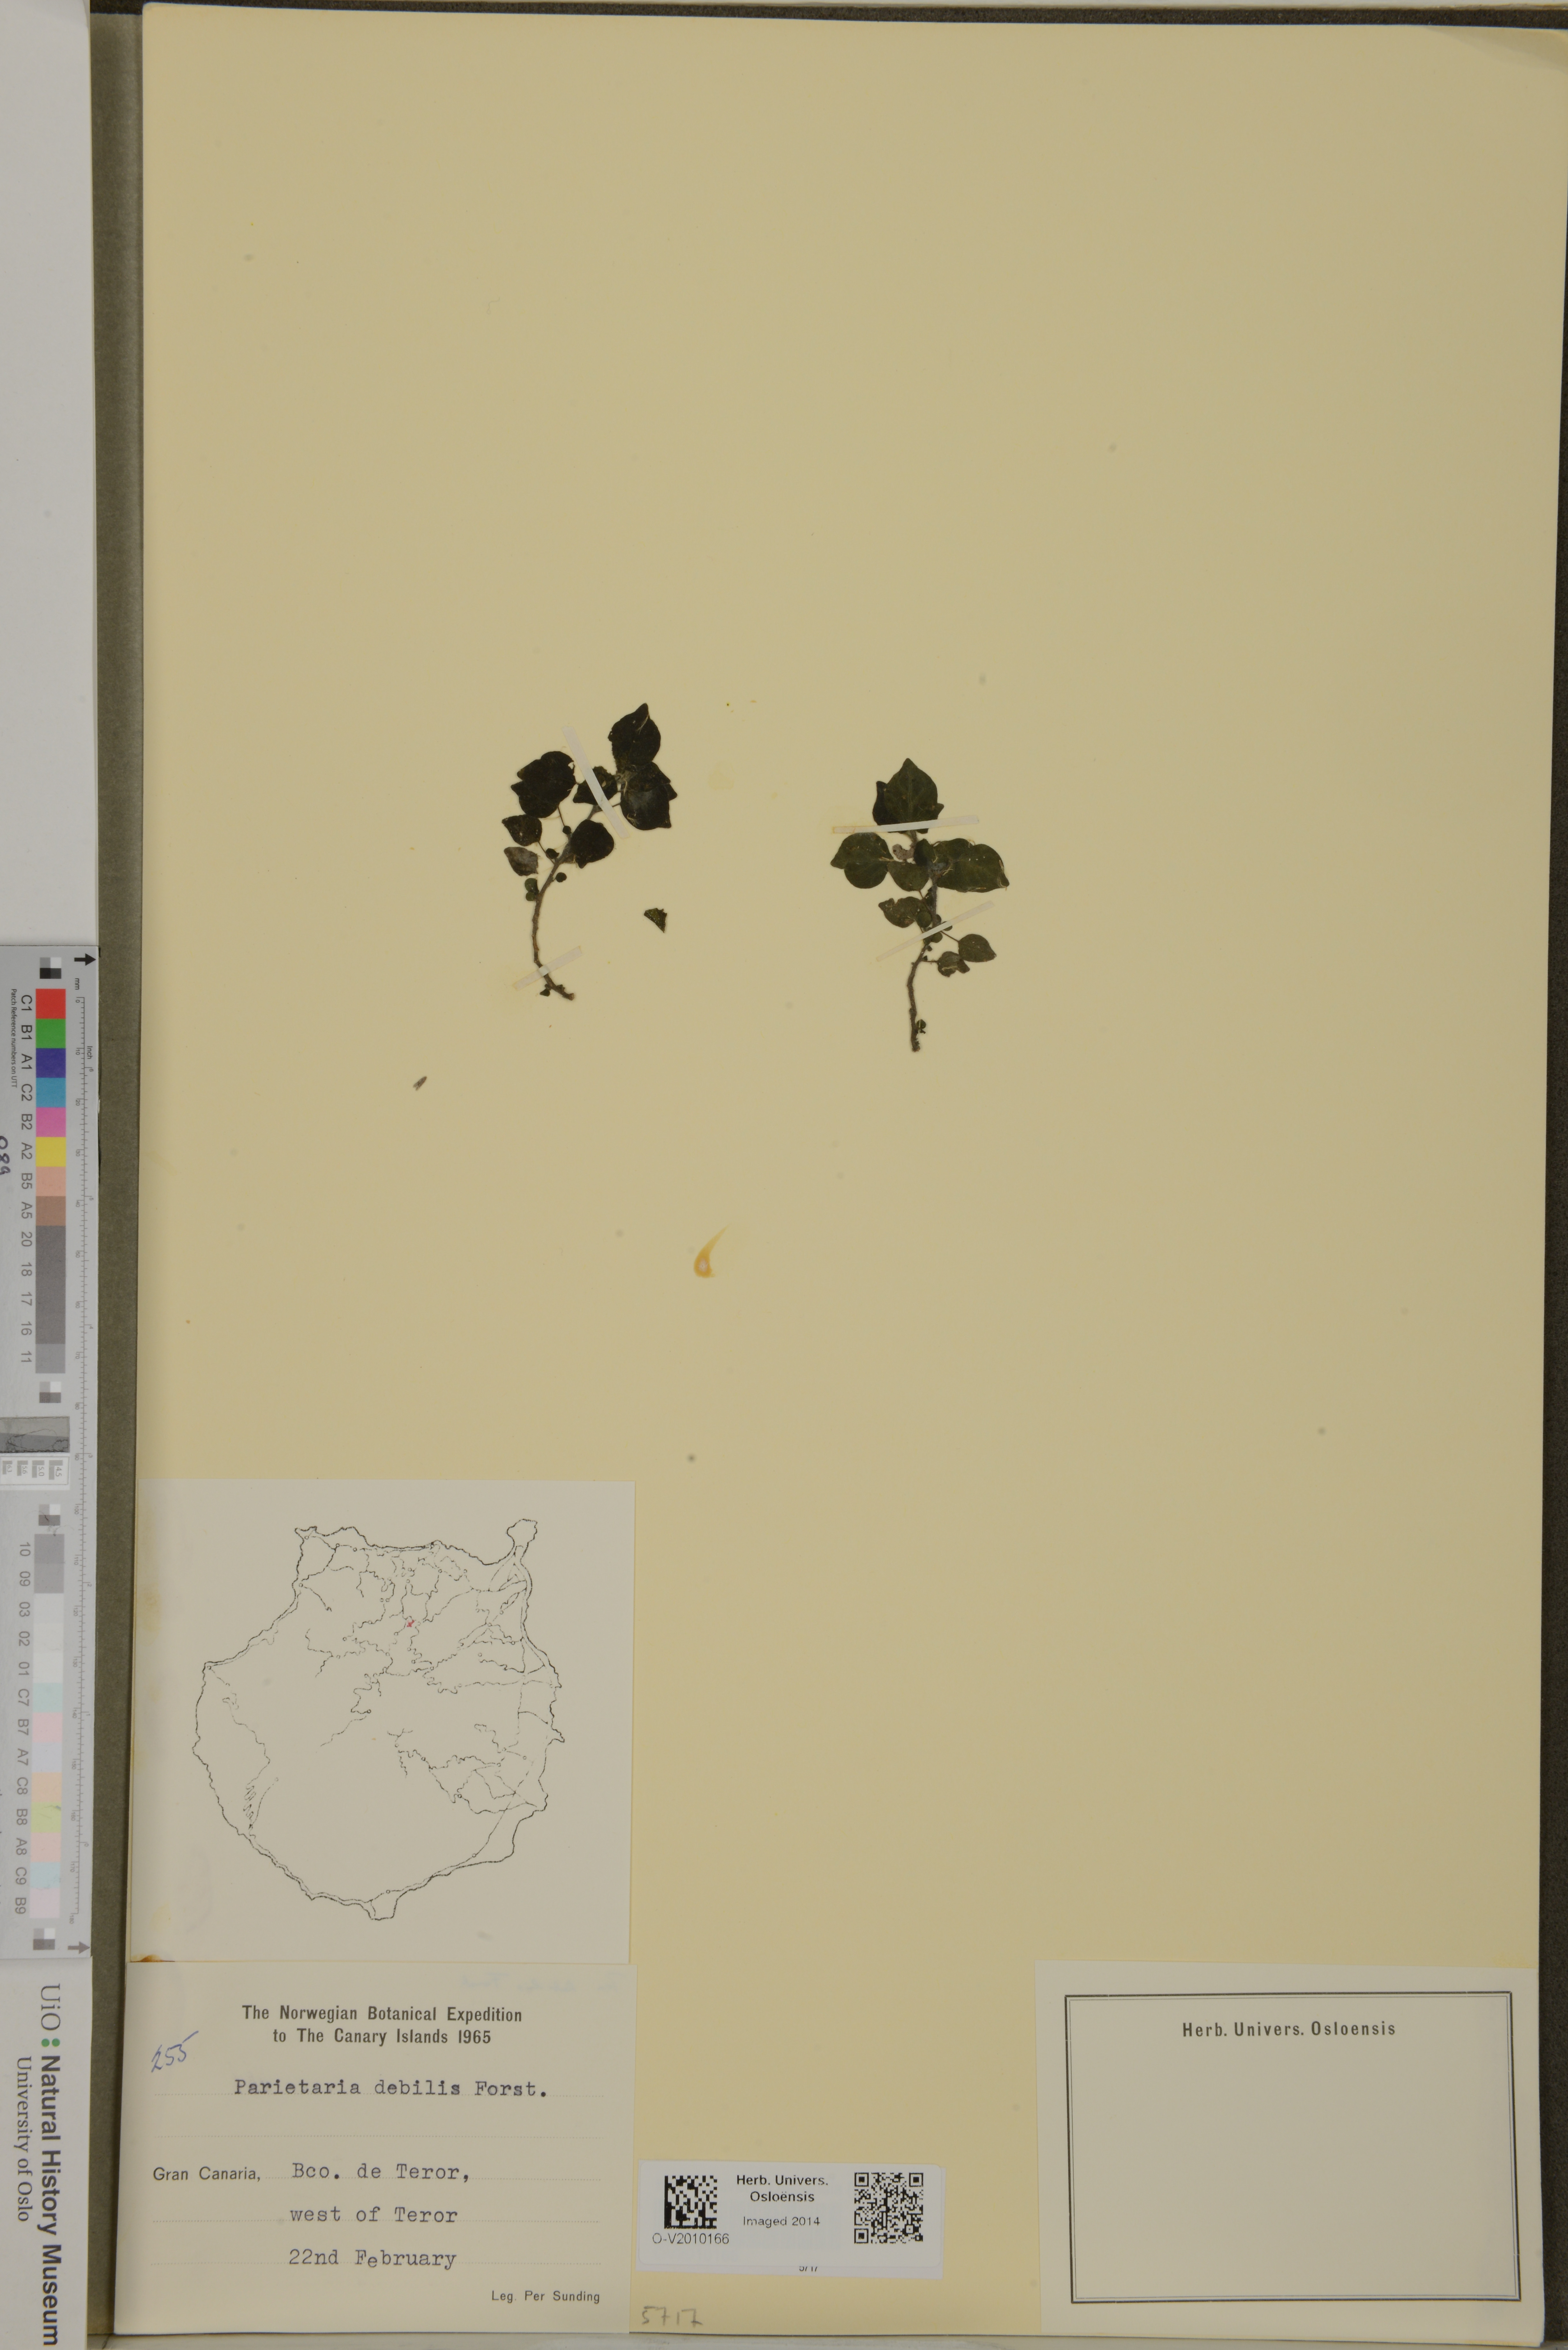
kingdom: Plantae
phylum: Tracheophyta
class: Magnoliopsida
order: Rosales
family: Urticaceae
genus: Parietaria
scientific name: Parietaria debilis
